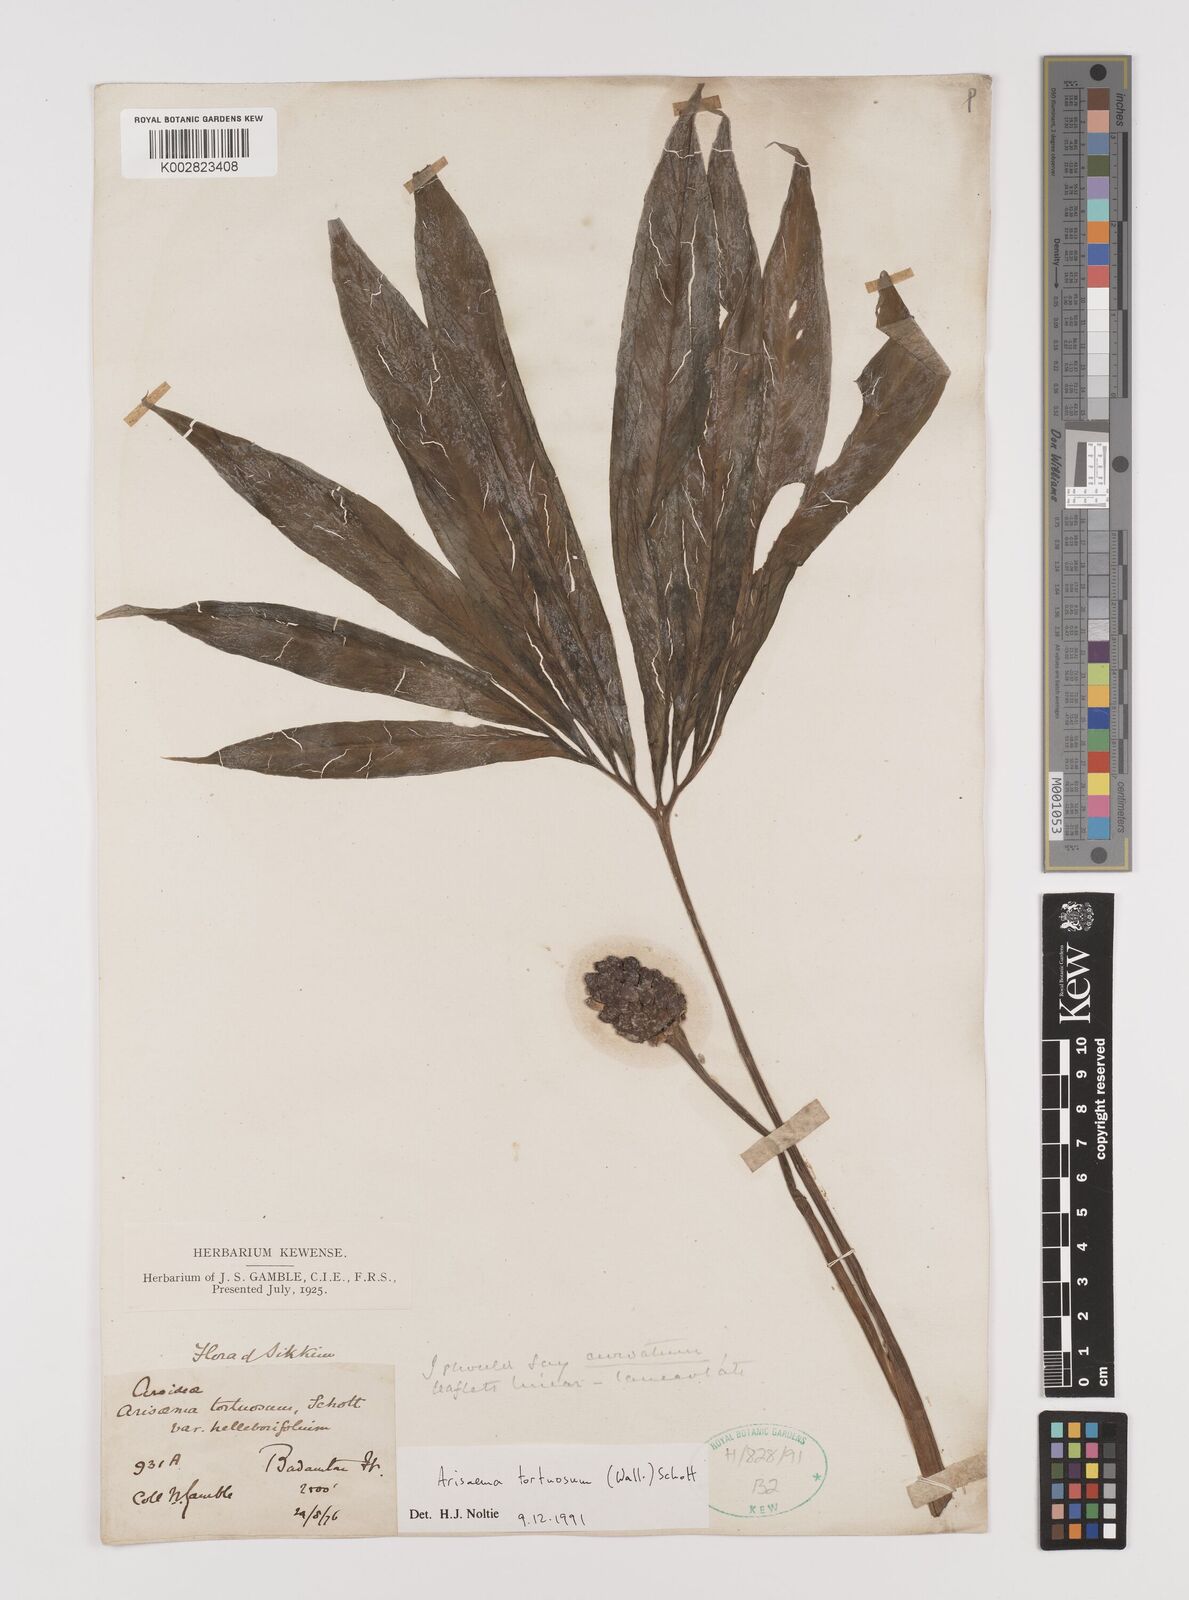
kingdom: Plantae
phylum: Tracheophyta
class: Liliopsida
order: Alismatales
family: Araceae
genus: Arisaema
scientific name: Arisaema tortuosum
